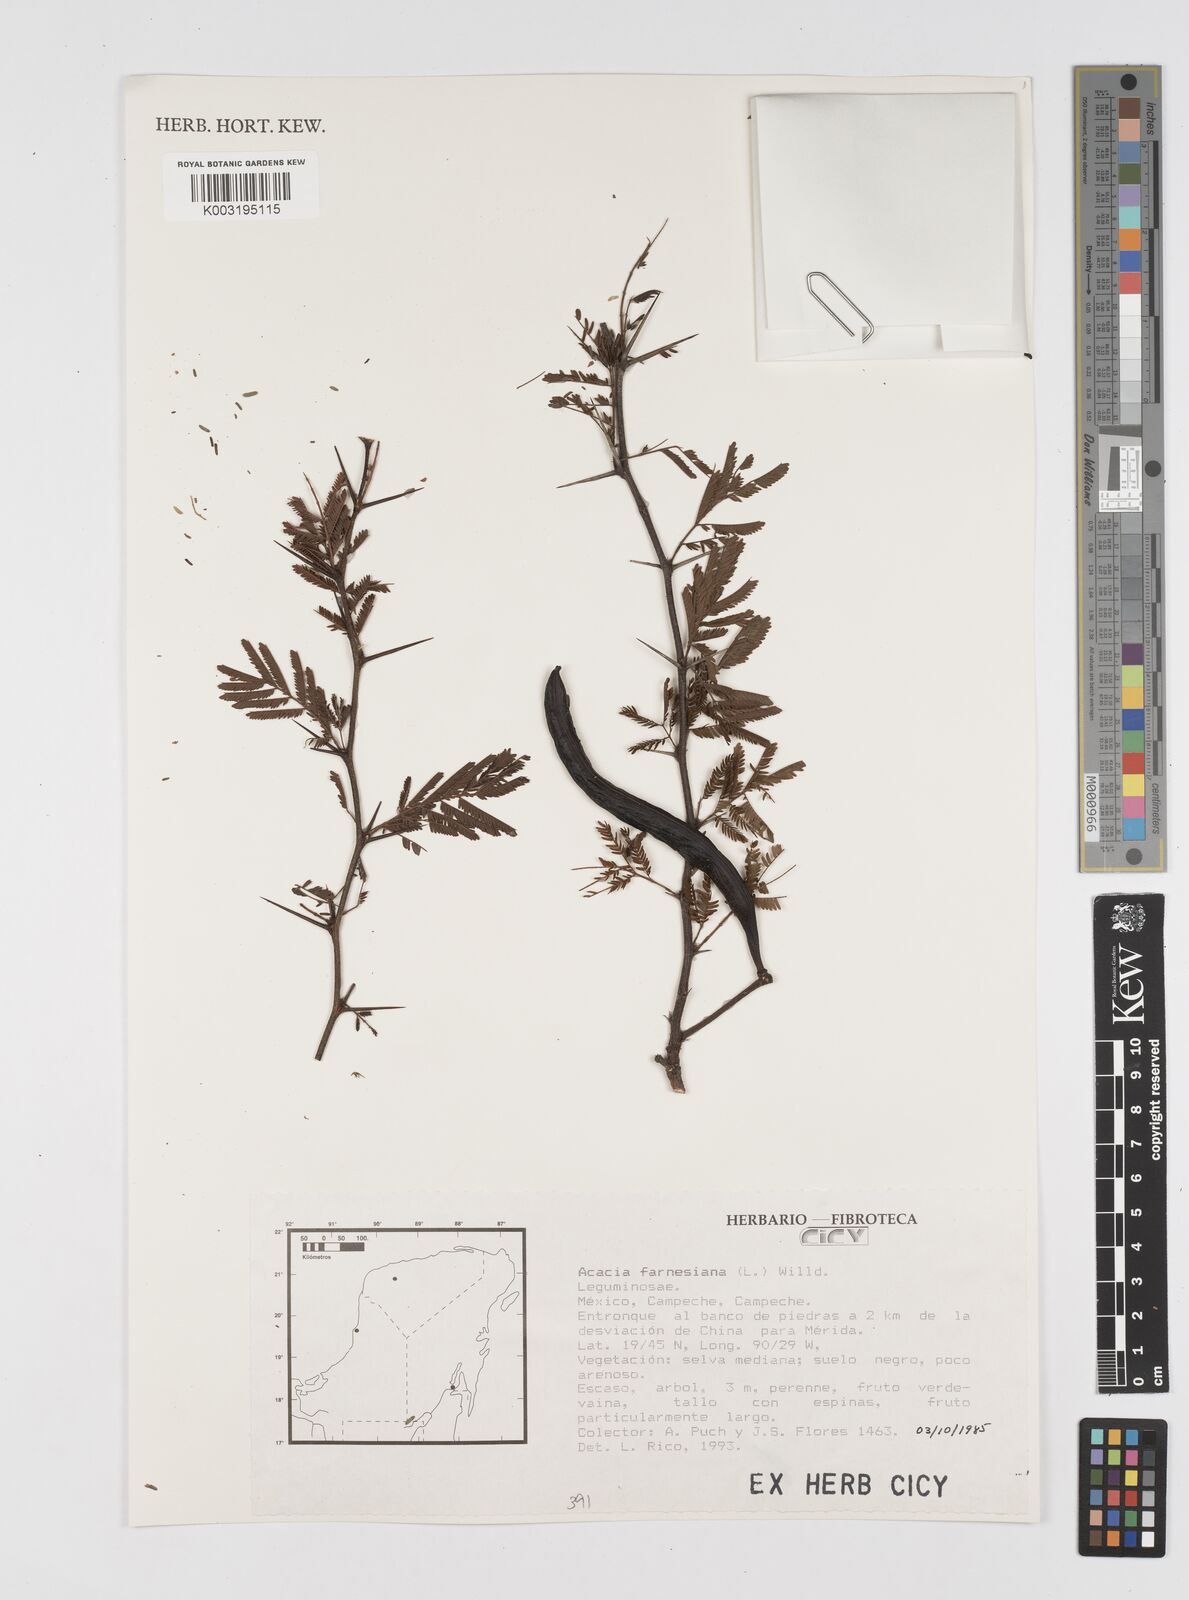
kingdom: Plantae
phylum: Tracheophyta
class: Magnoliopsida
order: Fabales
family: Fabaceae
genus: Vachellia
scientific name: Vachellia farnesiana
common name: Sweet acacia
